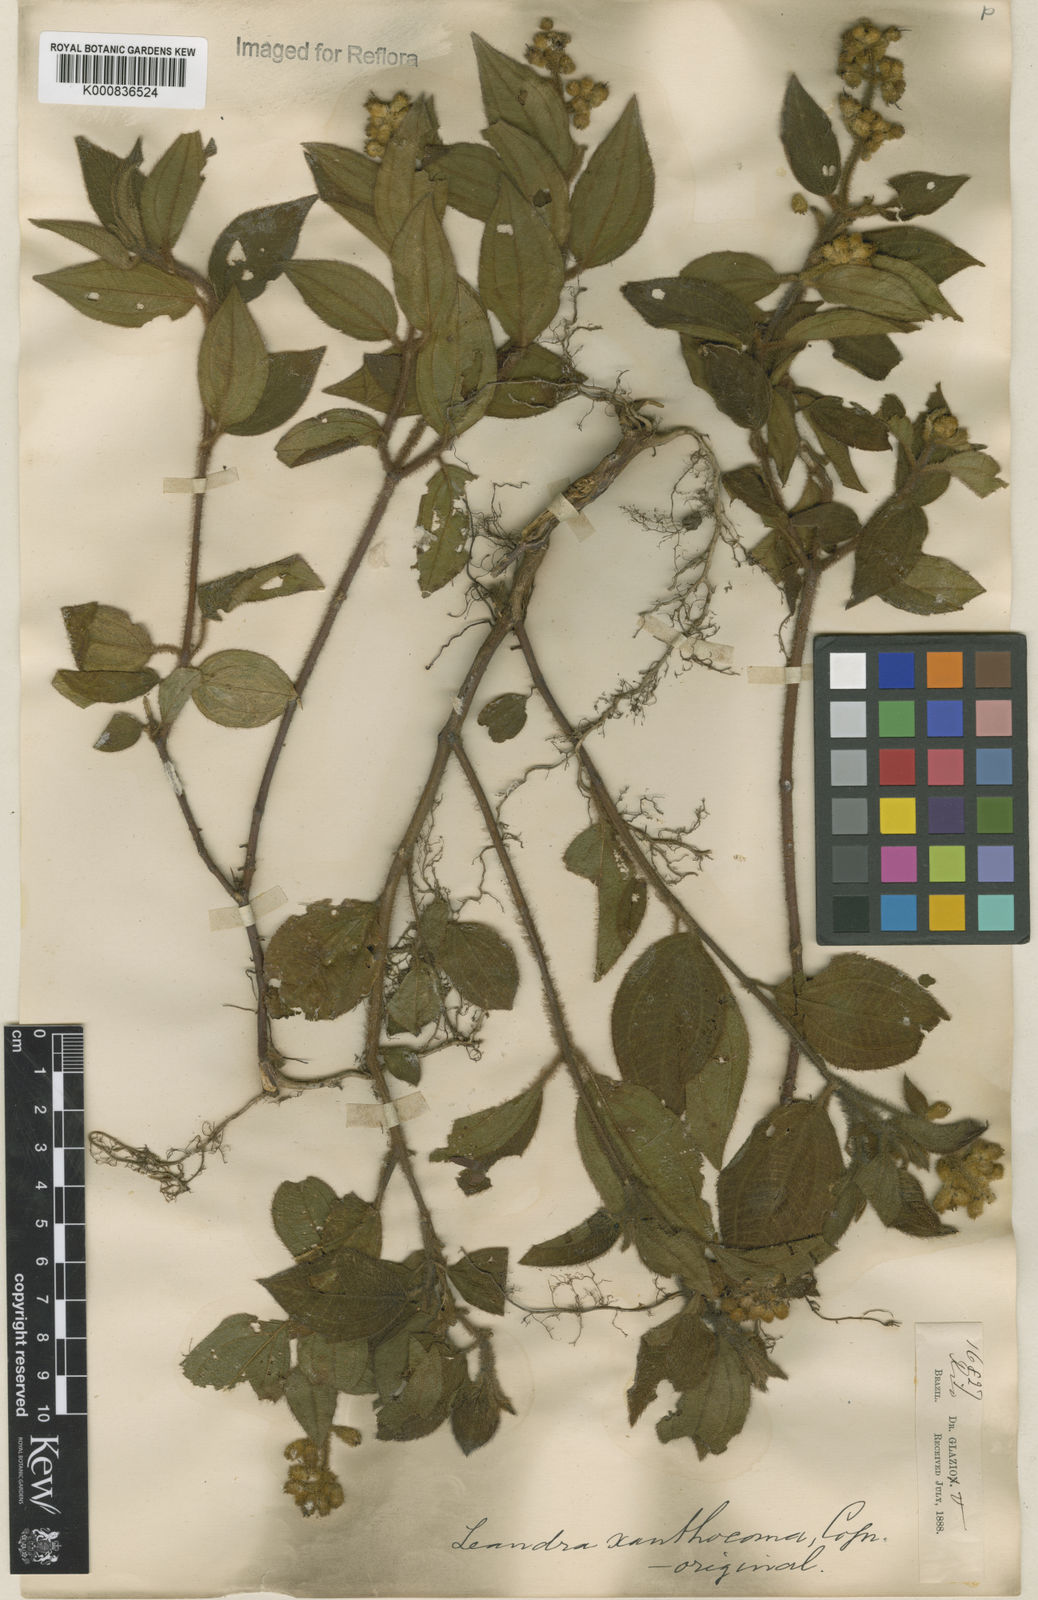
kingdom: Plantae
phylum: Tracheophyta
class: Magnoliopsida
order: Myrtales
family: Melastomataceae
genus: Miconia
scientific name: Miconia xanthocoma
